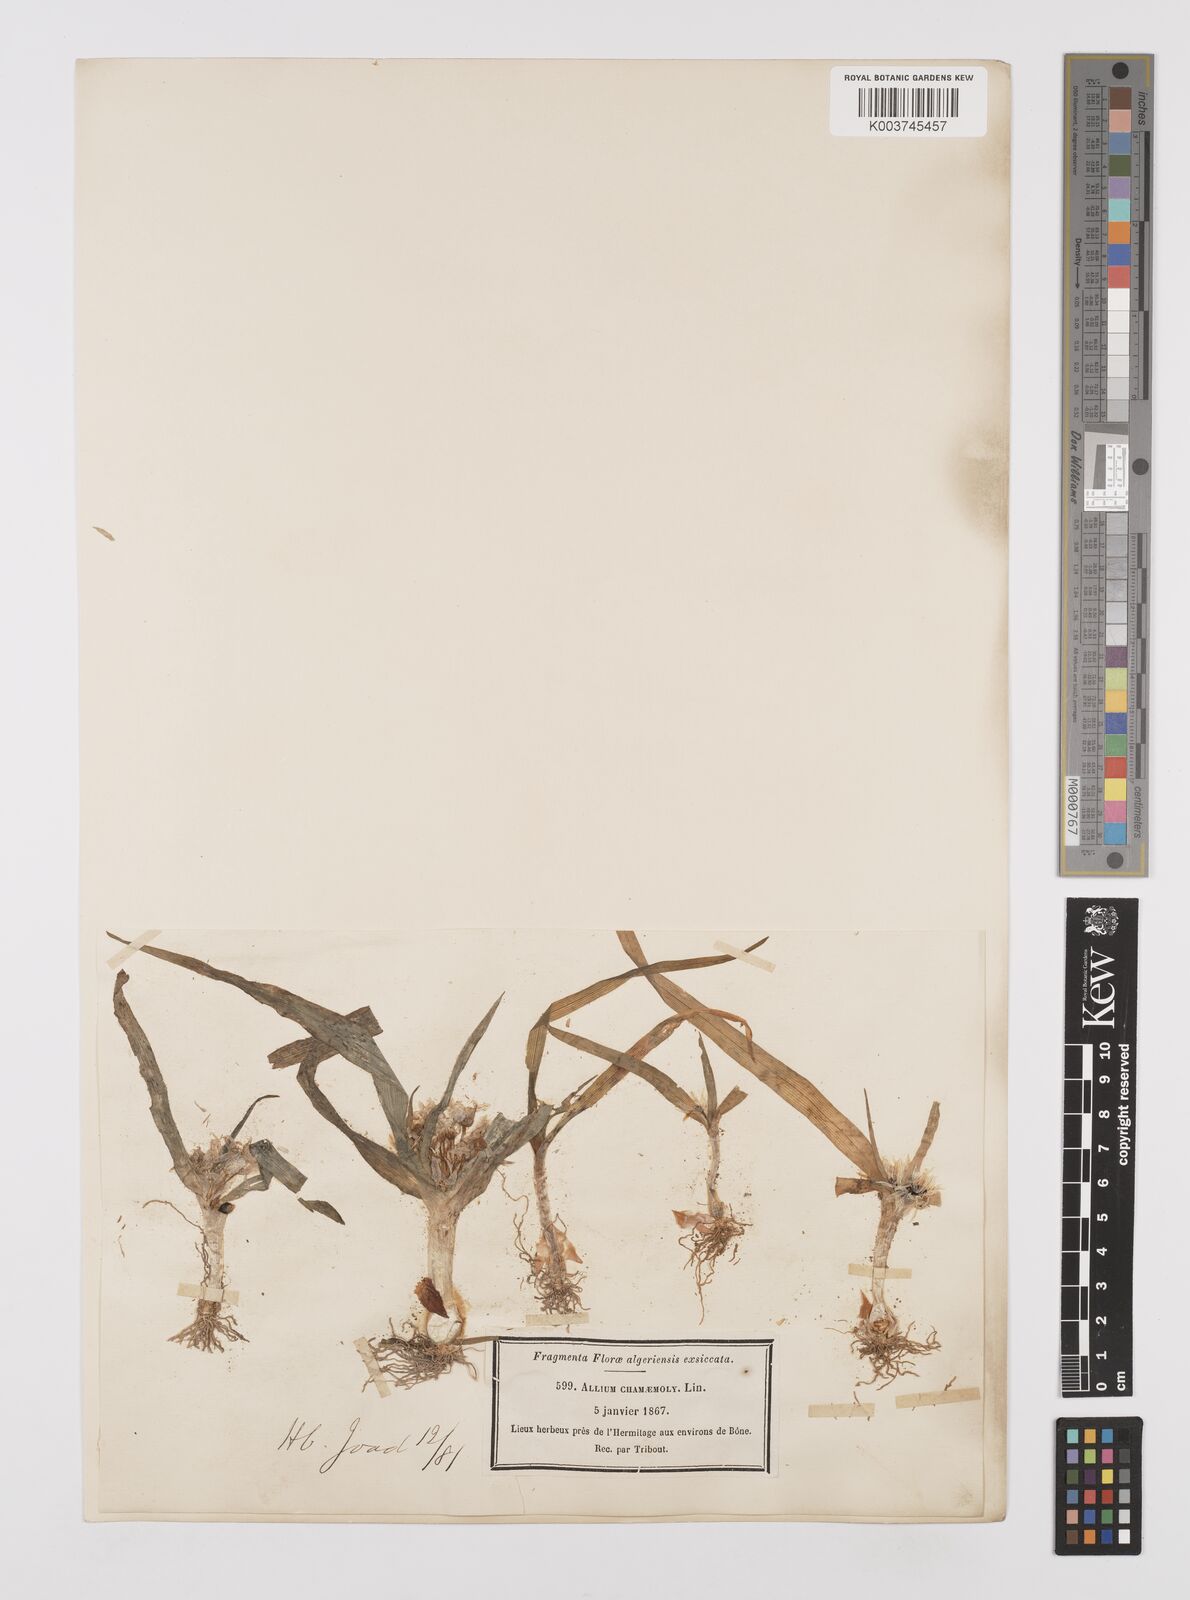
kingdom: Plantae
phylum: Tracheophyta
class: Liliopsida
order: Asparagales
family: Amaryllidaceae
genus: Allium
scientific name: Allium chamaemoly
